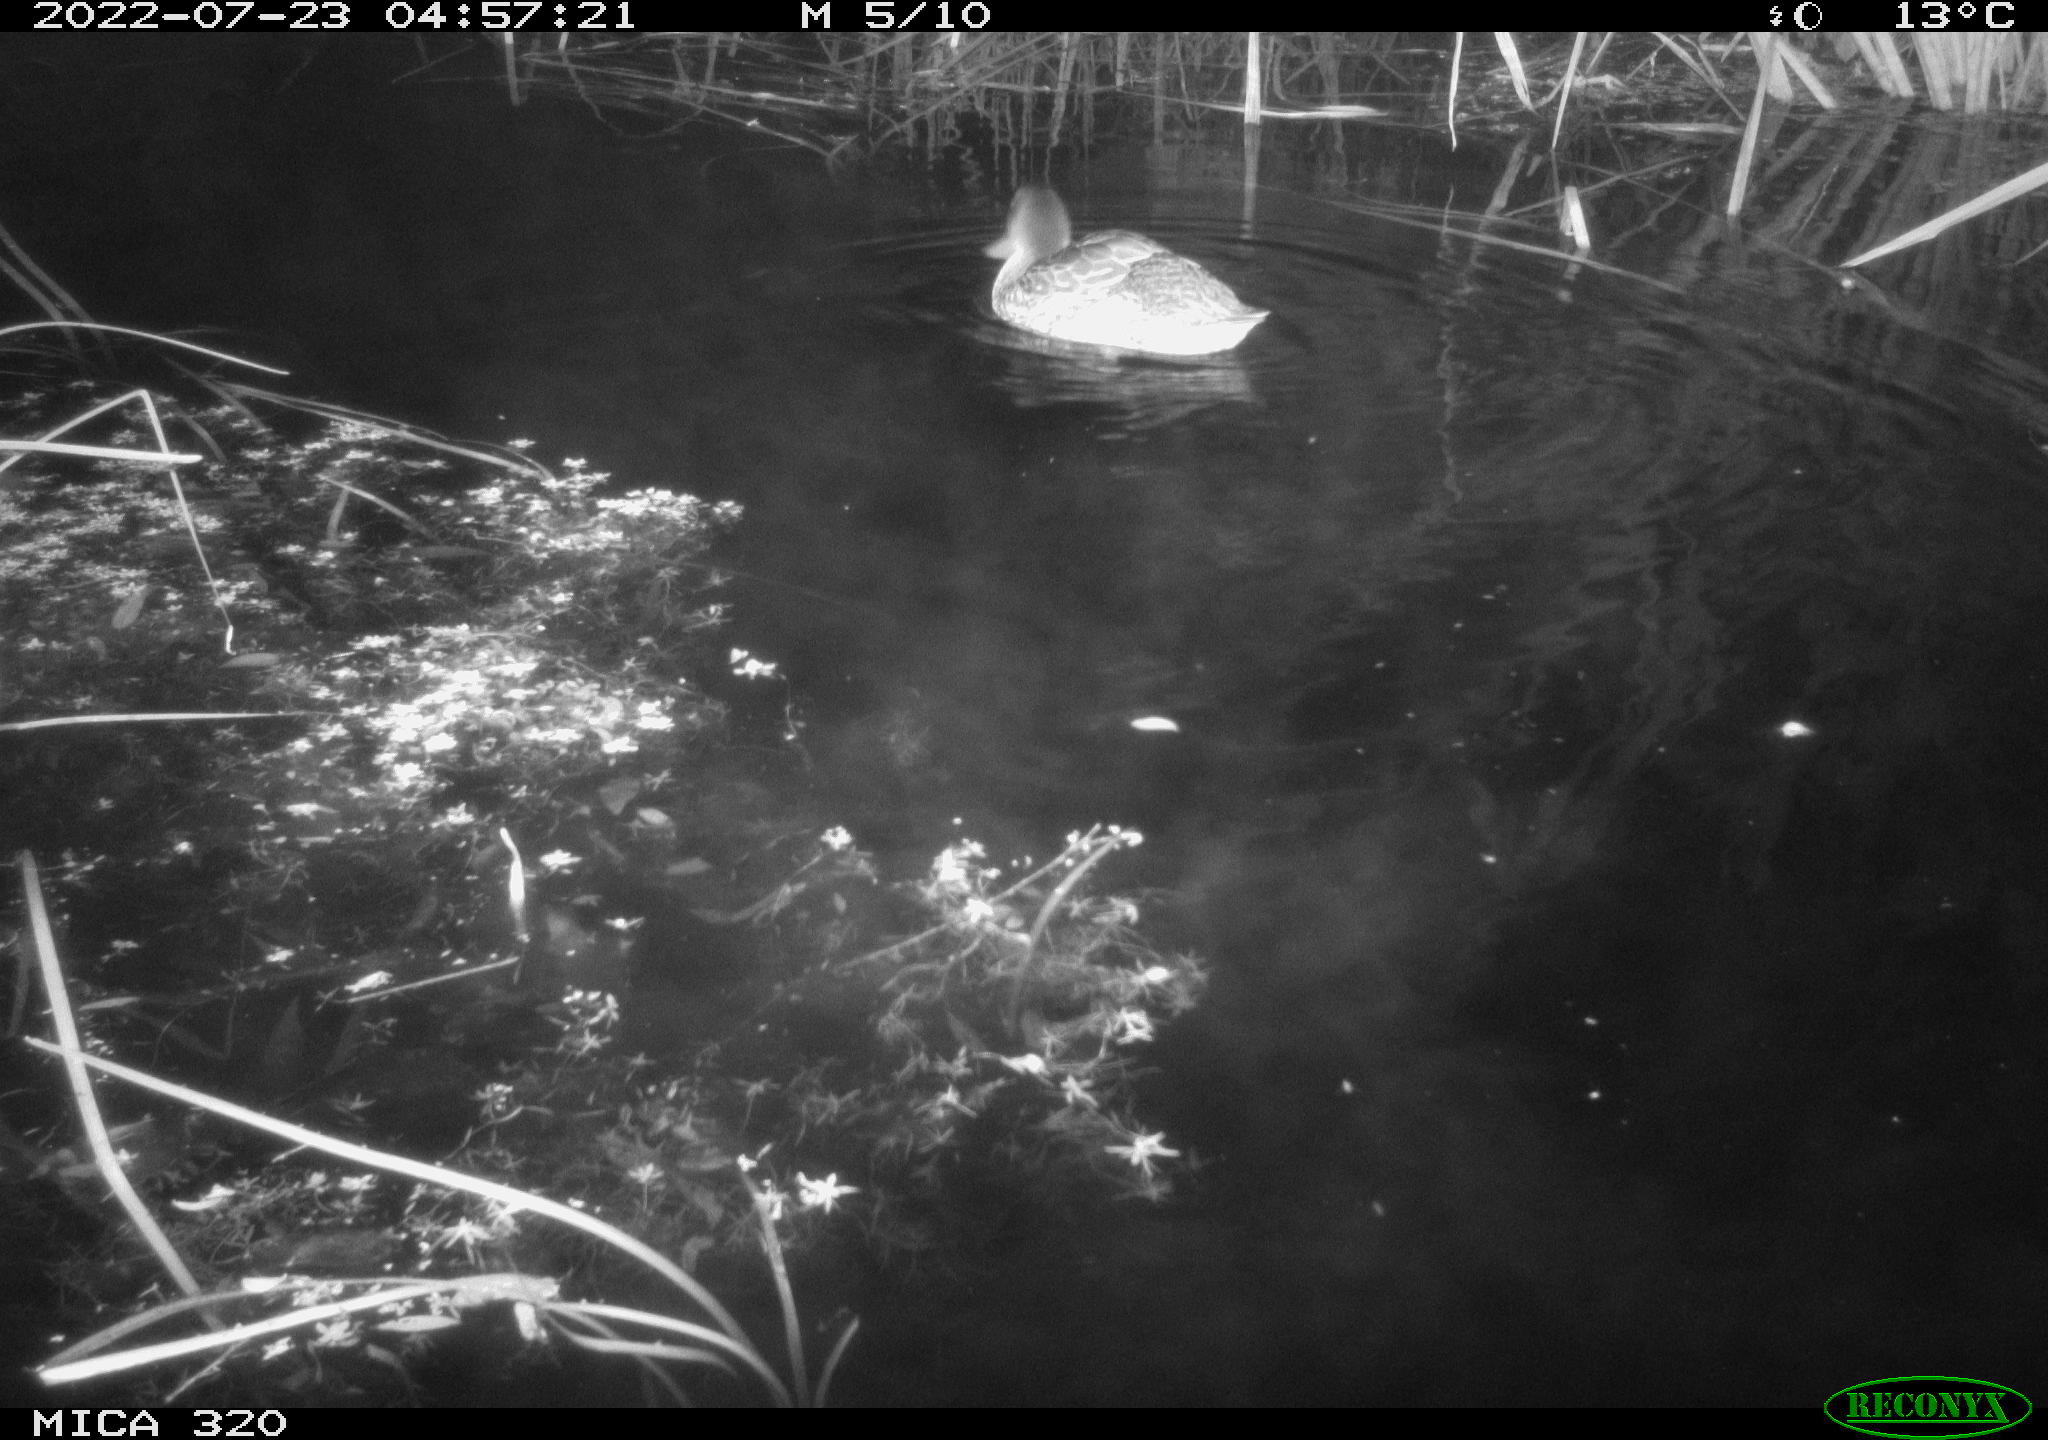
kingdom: Animalia
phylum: Chordata
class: Aves
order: Anseriformes
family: Anatidae
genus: Mareca
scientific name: Mareca strepera
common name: Gadwall
